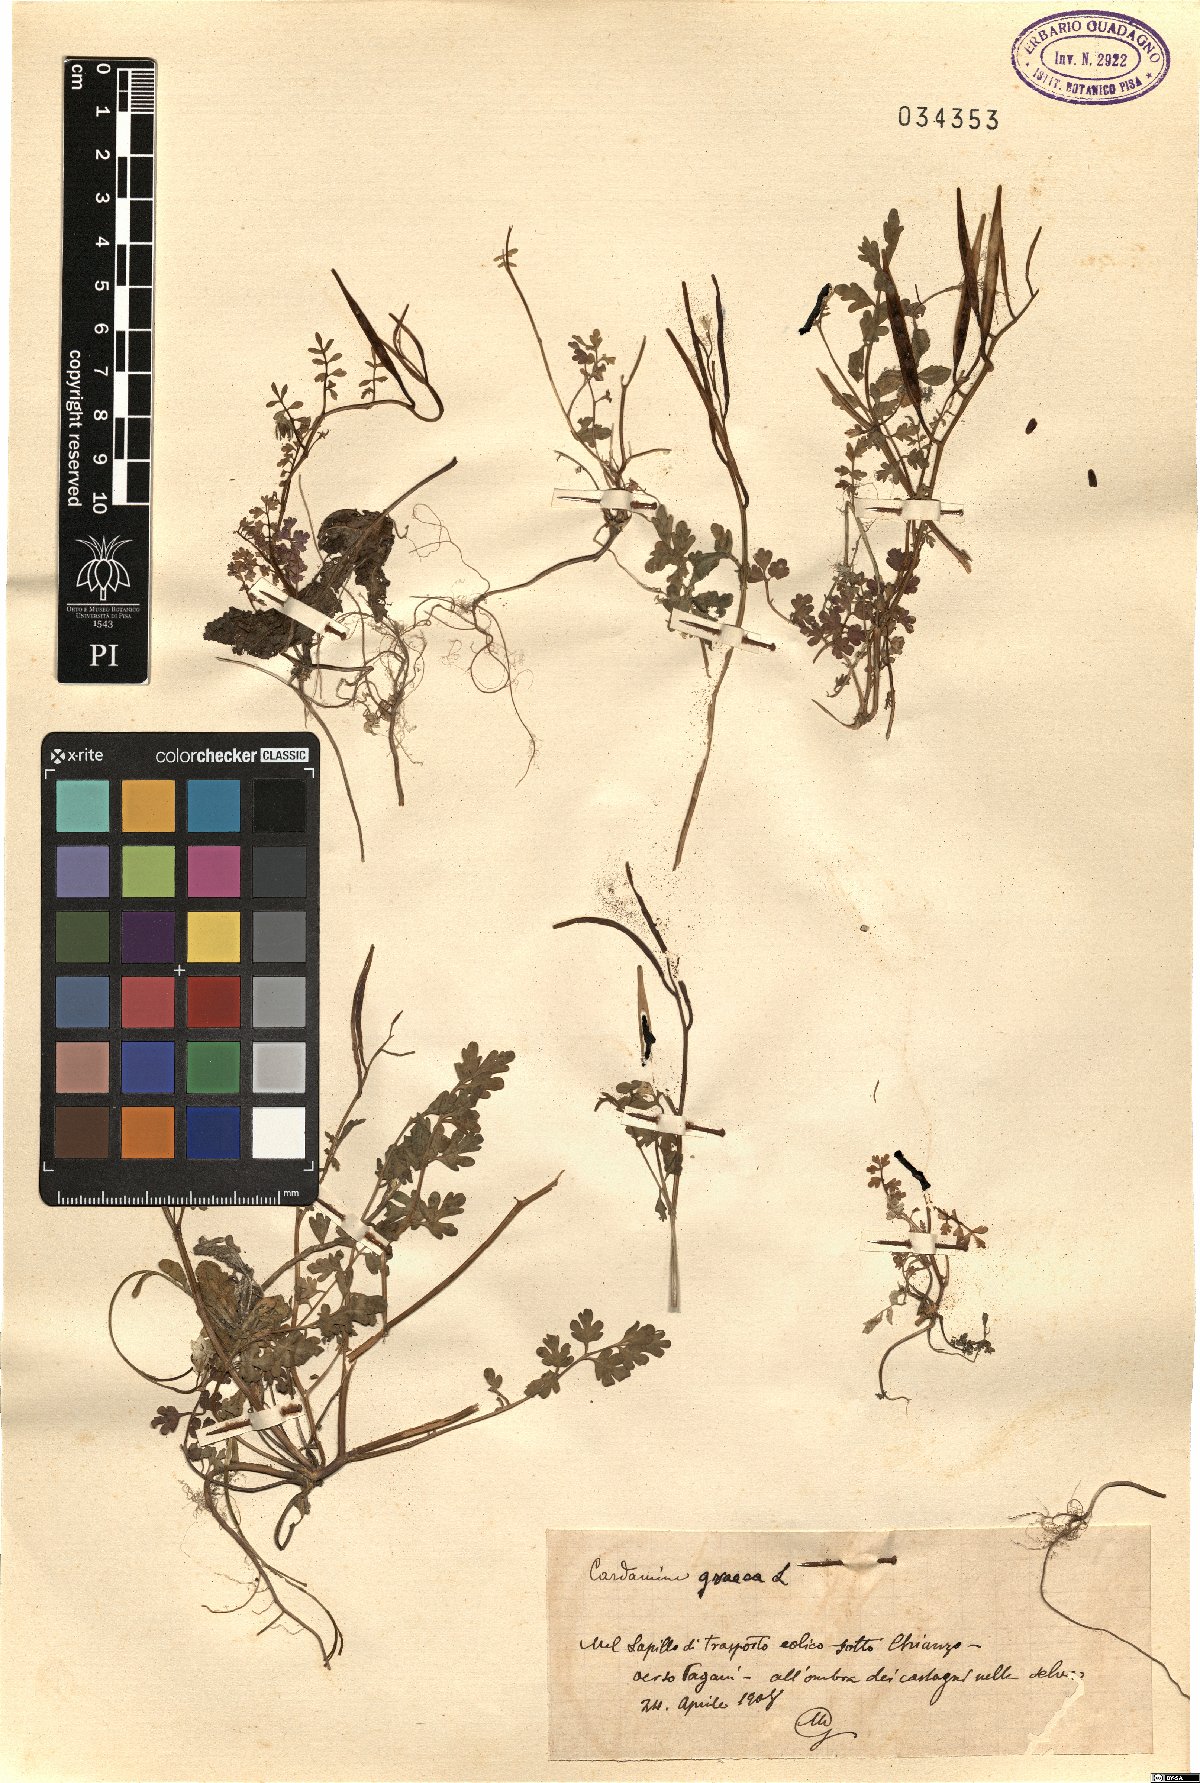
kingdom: Plantae
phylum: Tracheophyta
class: Magnoliopsida
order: Brassicales
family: Brassicaceae
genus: Cardamine
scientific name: Cardamine graeca
